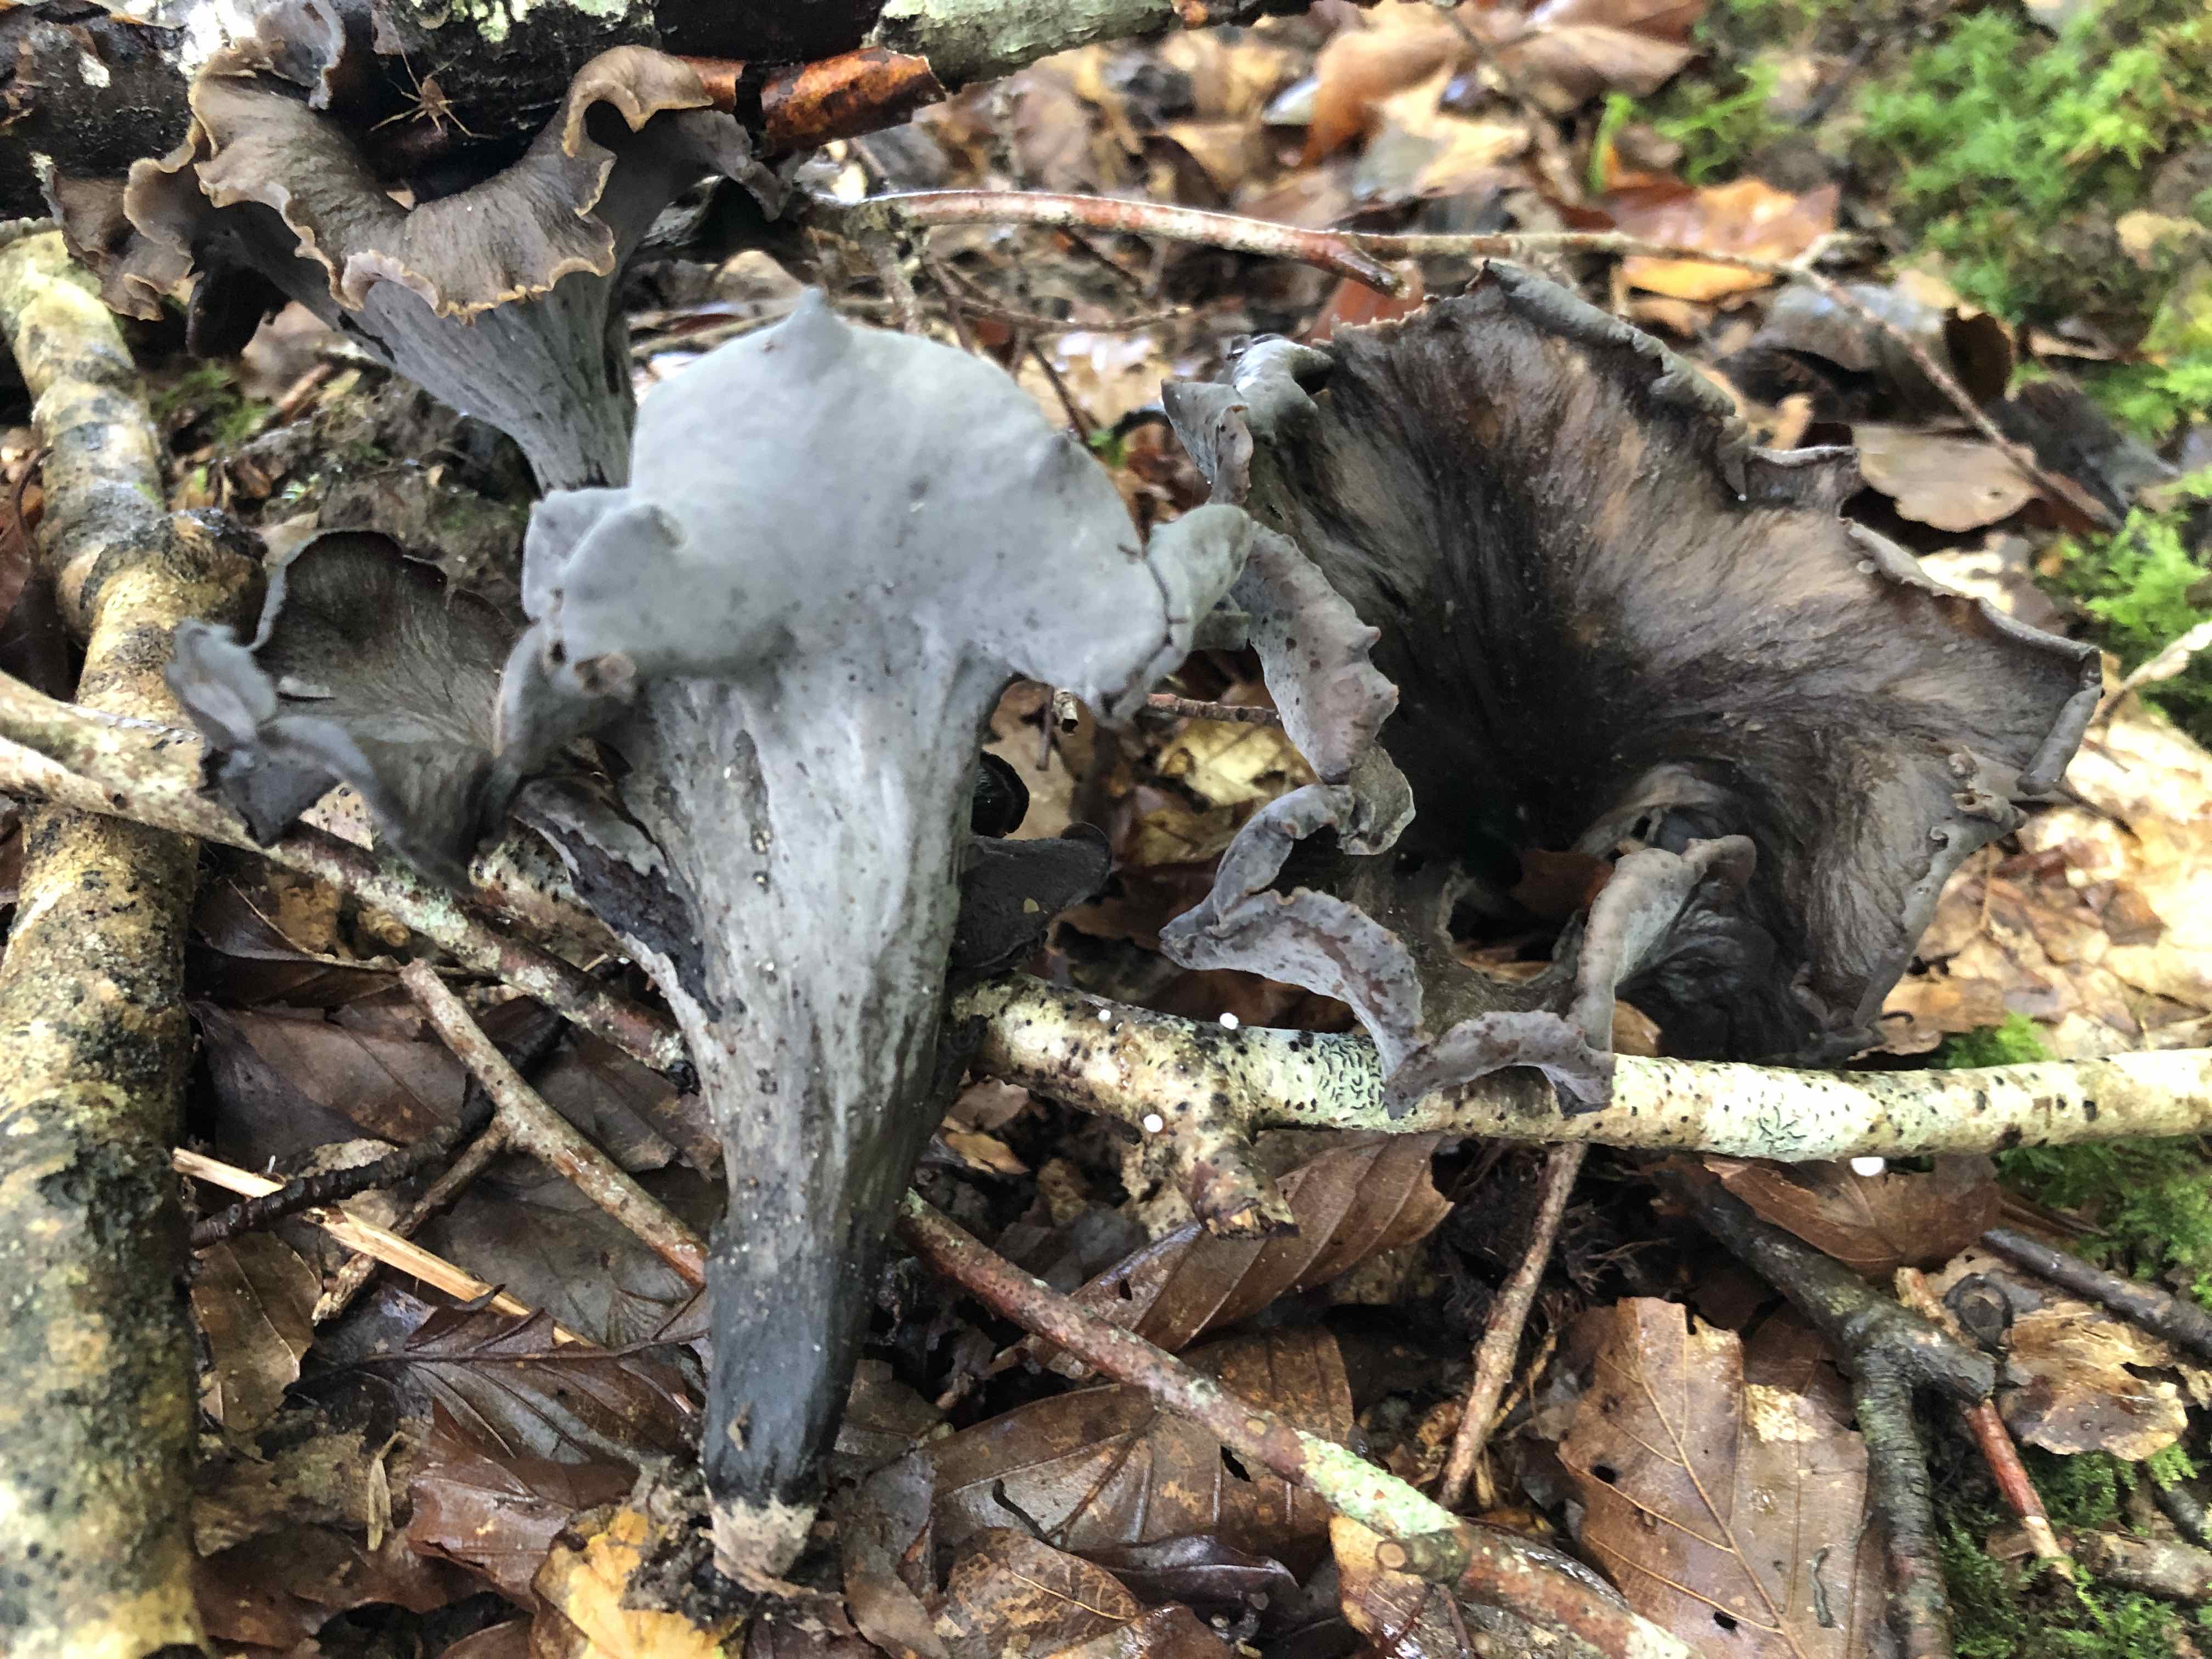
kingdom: Fungi
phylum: Basidiomycota
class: Agaricomycetes
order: Cantharellales
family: Hydnaceae
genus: Craterellus
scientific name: Craterellus cornucopioides
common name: trompetsvamp
